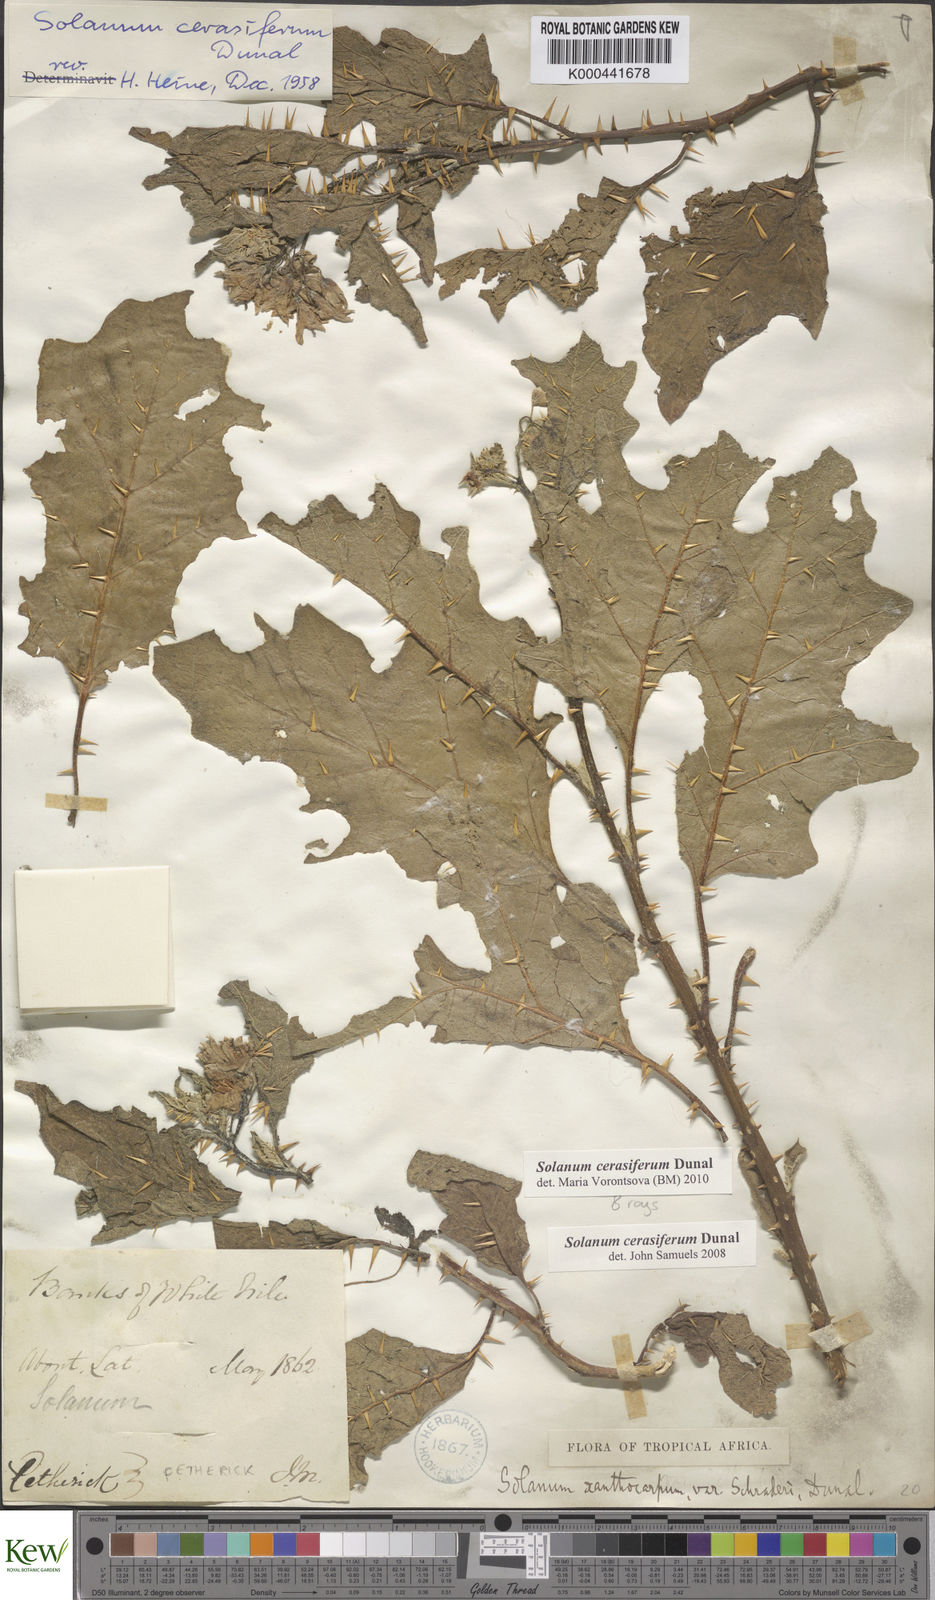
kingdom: Plantae
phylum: Tracheophyta
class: Magnoliopsida
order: Solanales
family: Solanaceae
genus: Solanum
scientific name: Solanum cerasiferum
